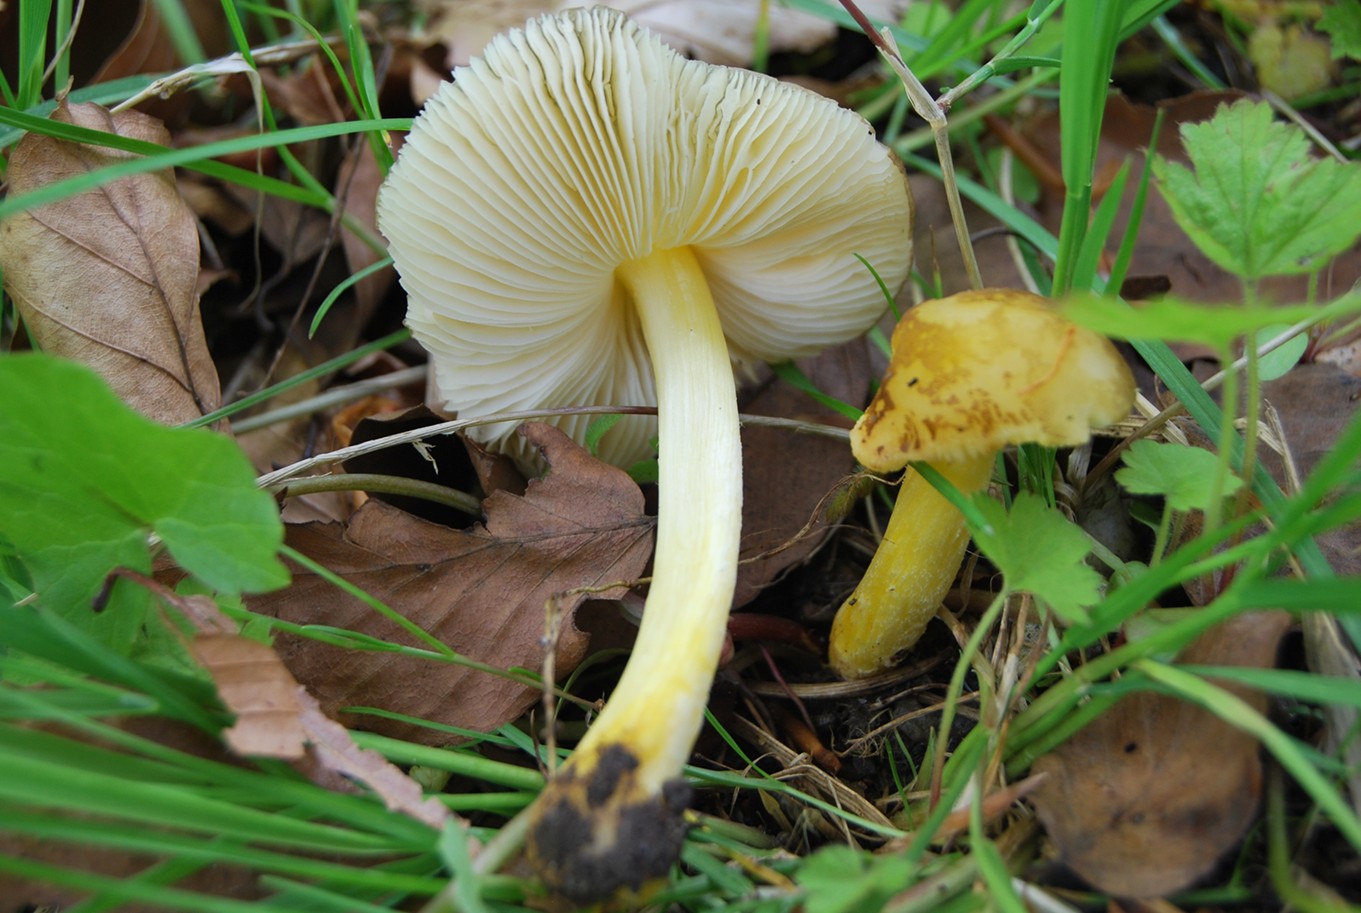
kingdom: Fungi
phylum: Basidiomycota
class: Agaricomycetes
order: Agaricales
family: Pluteaceae
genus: Pluteus
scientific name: Pluteus romellii
